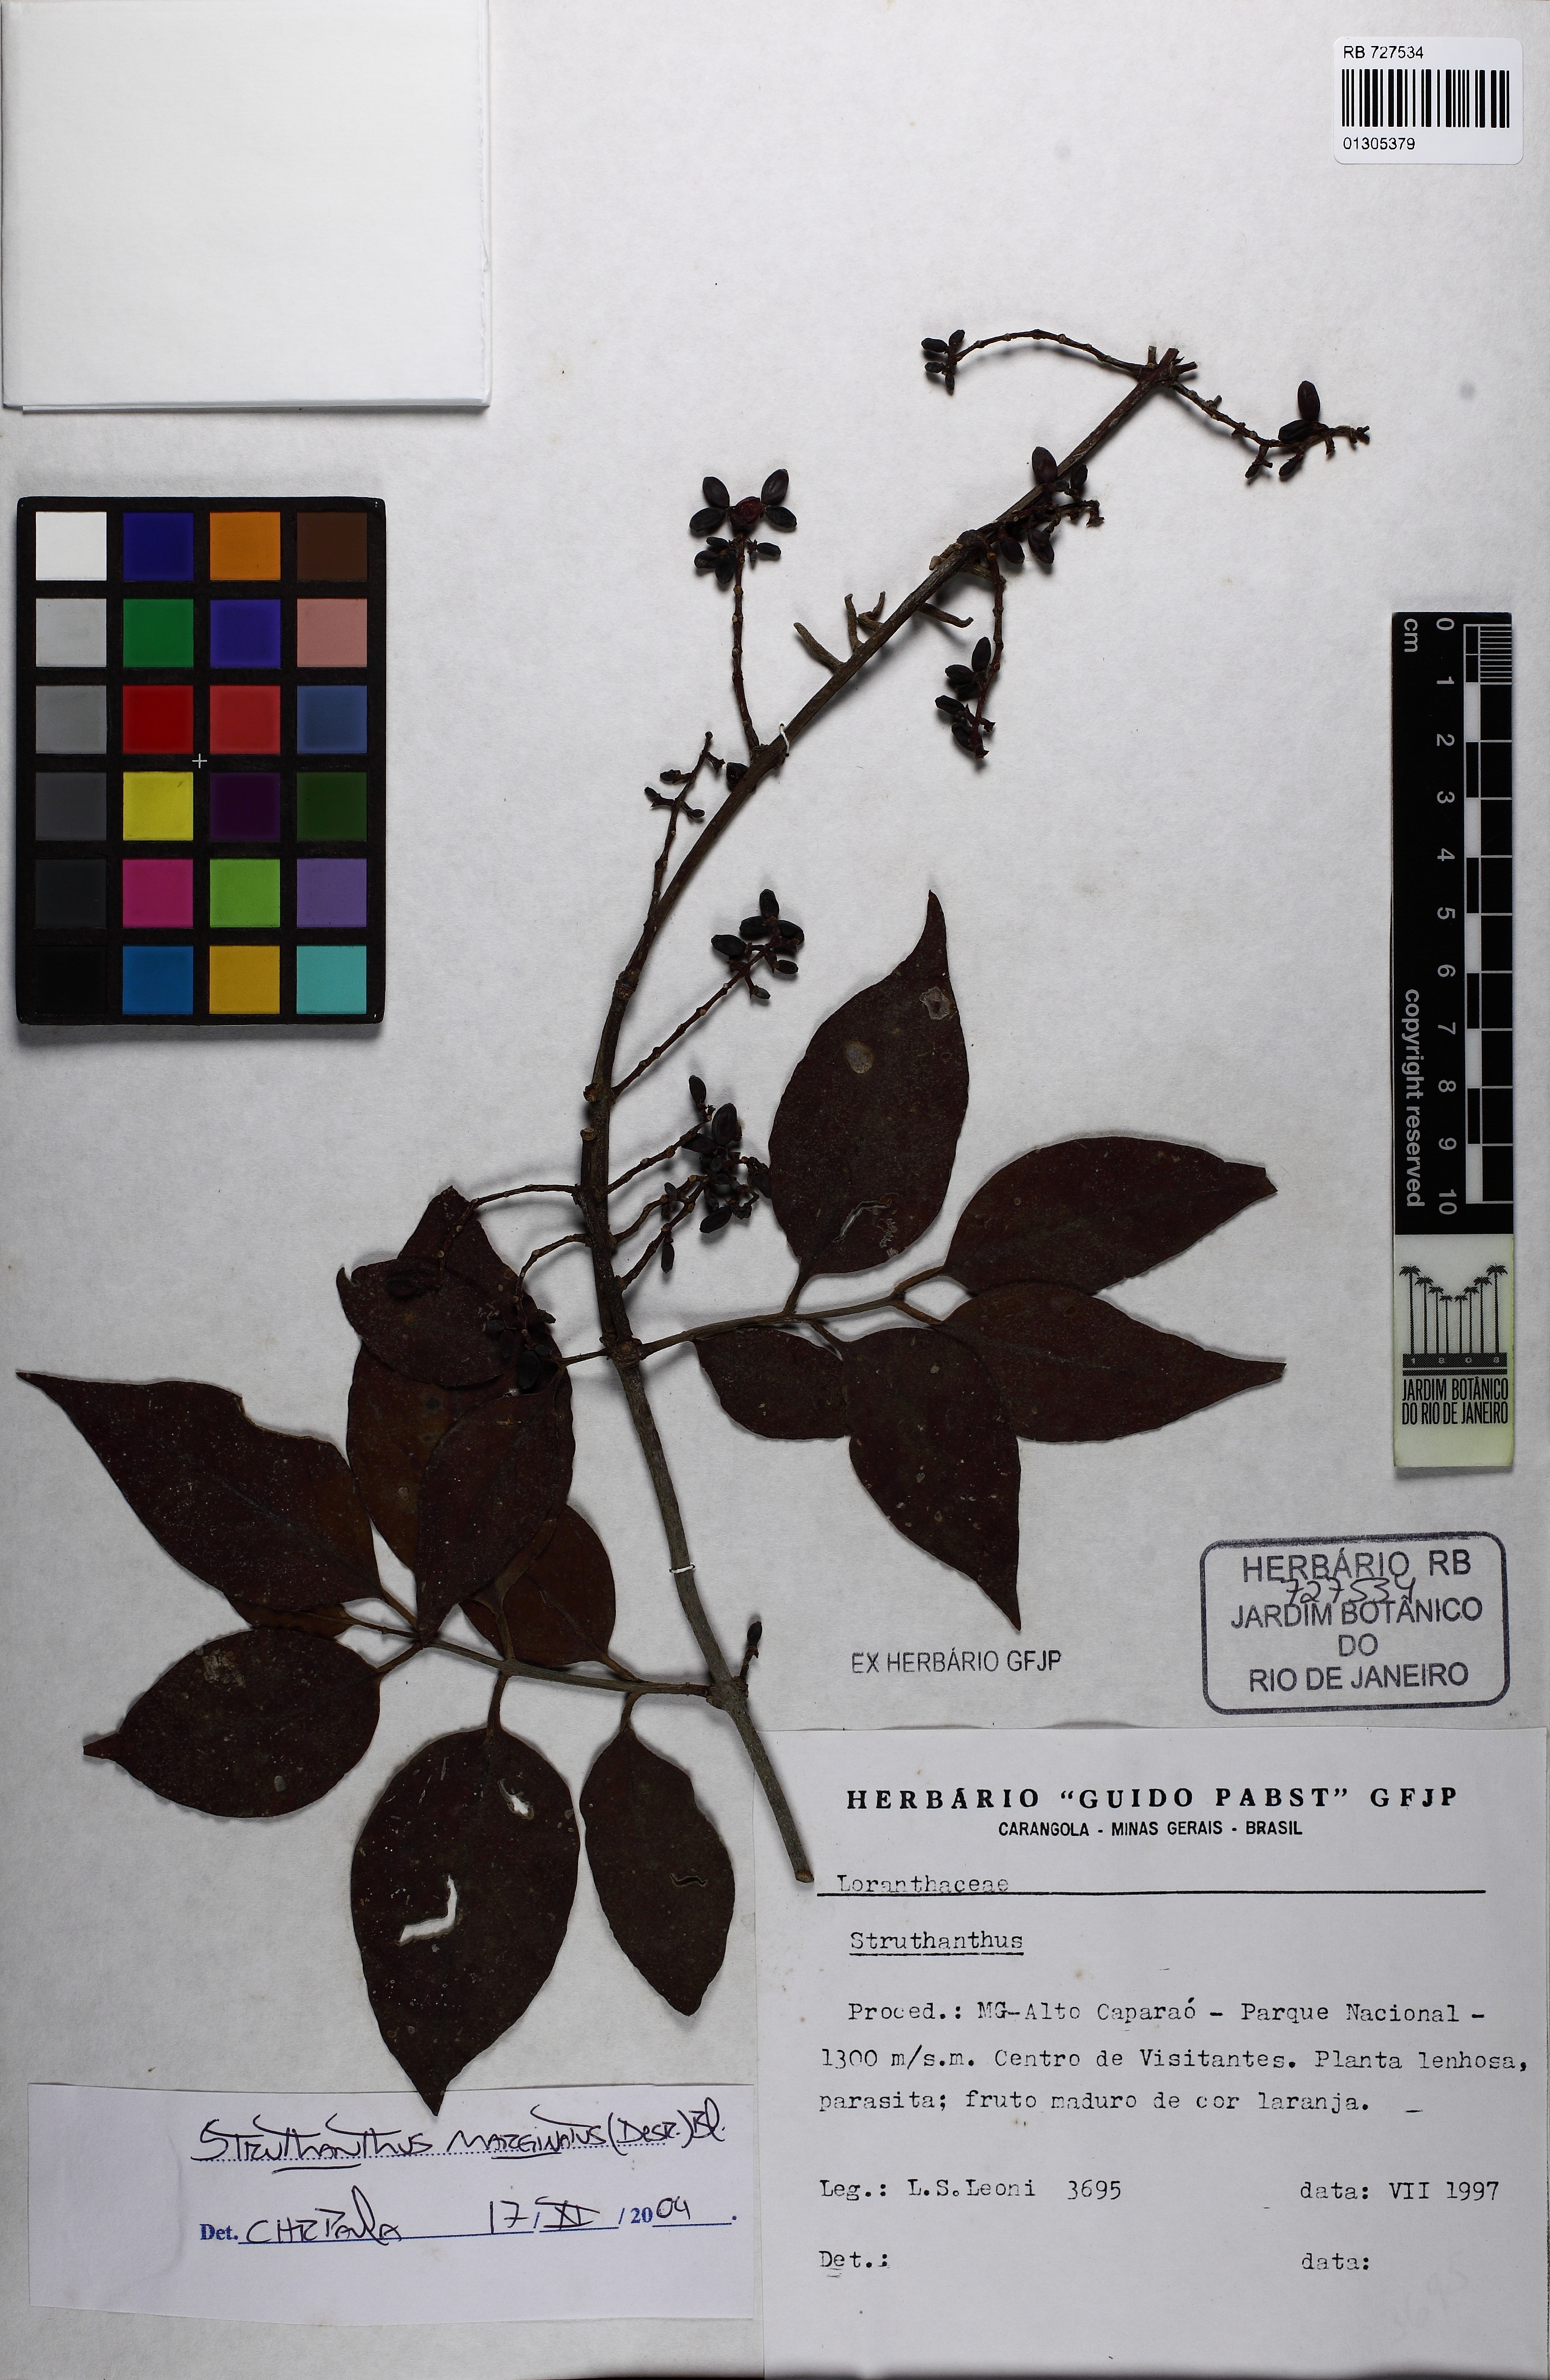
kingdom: Plantae
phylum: Tracheophyta
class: Magnoliopsida
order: Santalales
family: Loranthaceae
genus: Struthanthus
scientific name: Struthanthus marginatus
